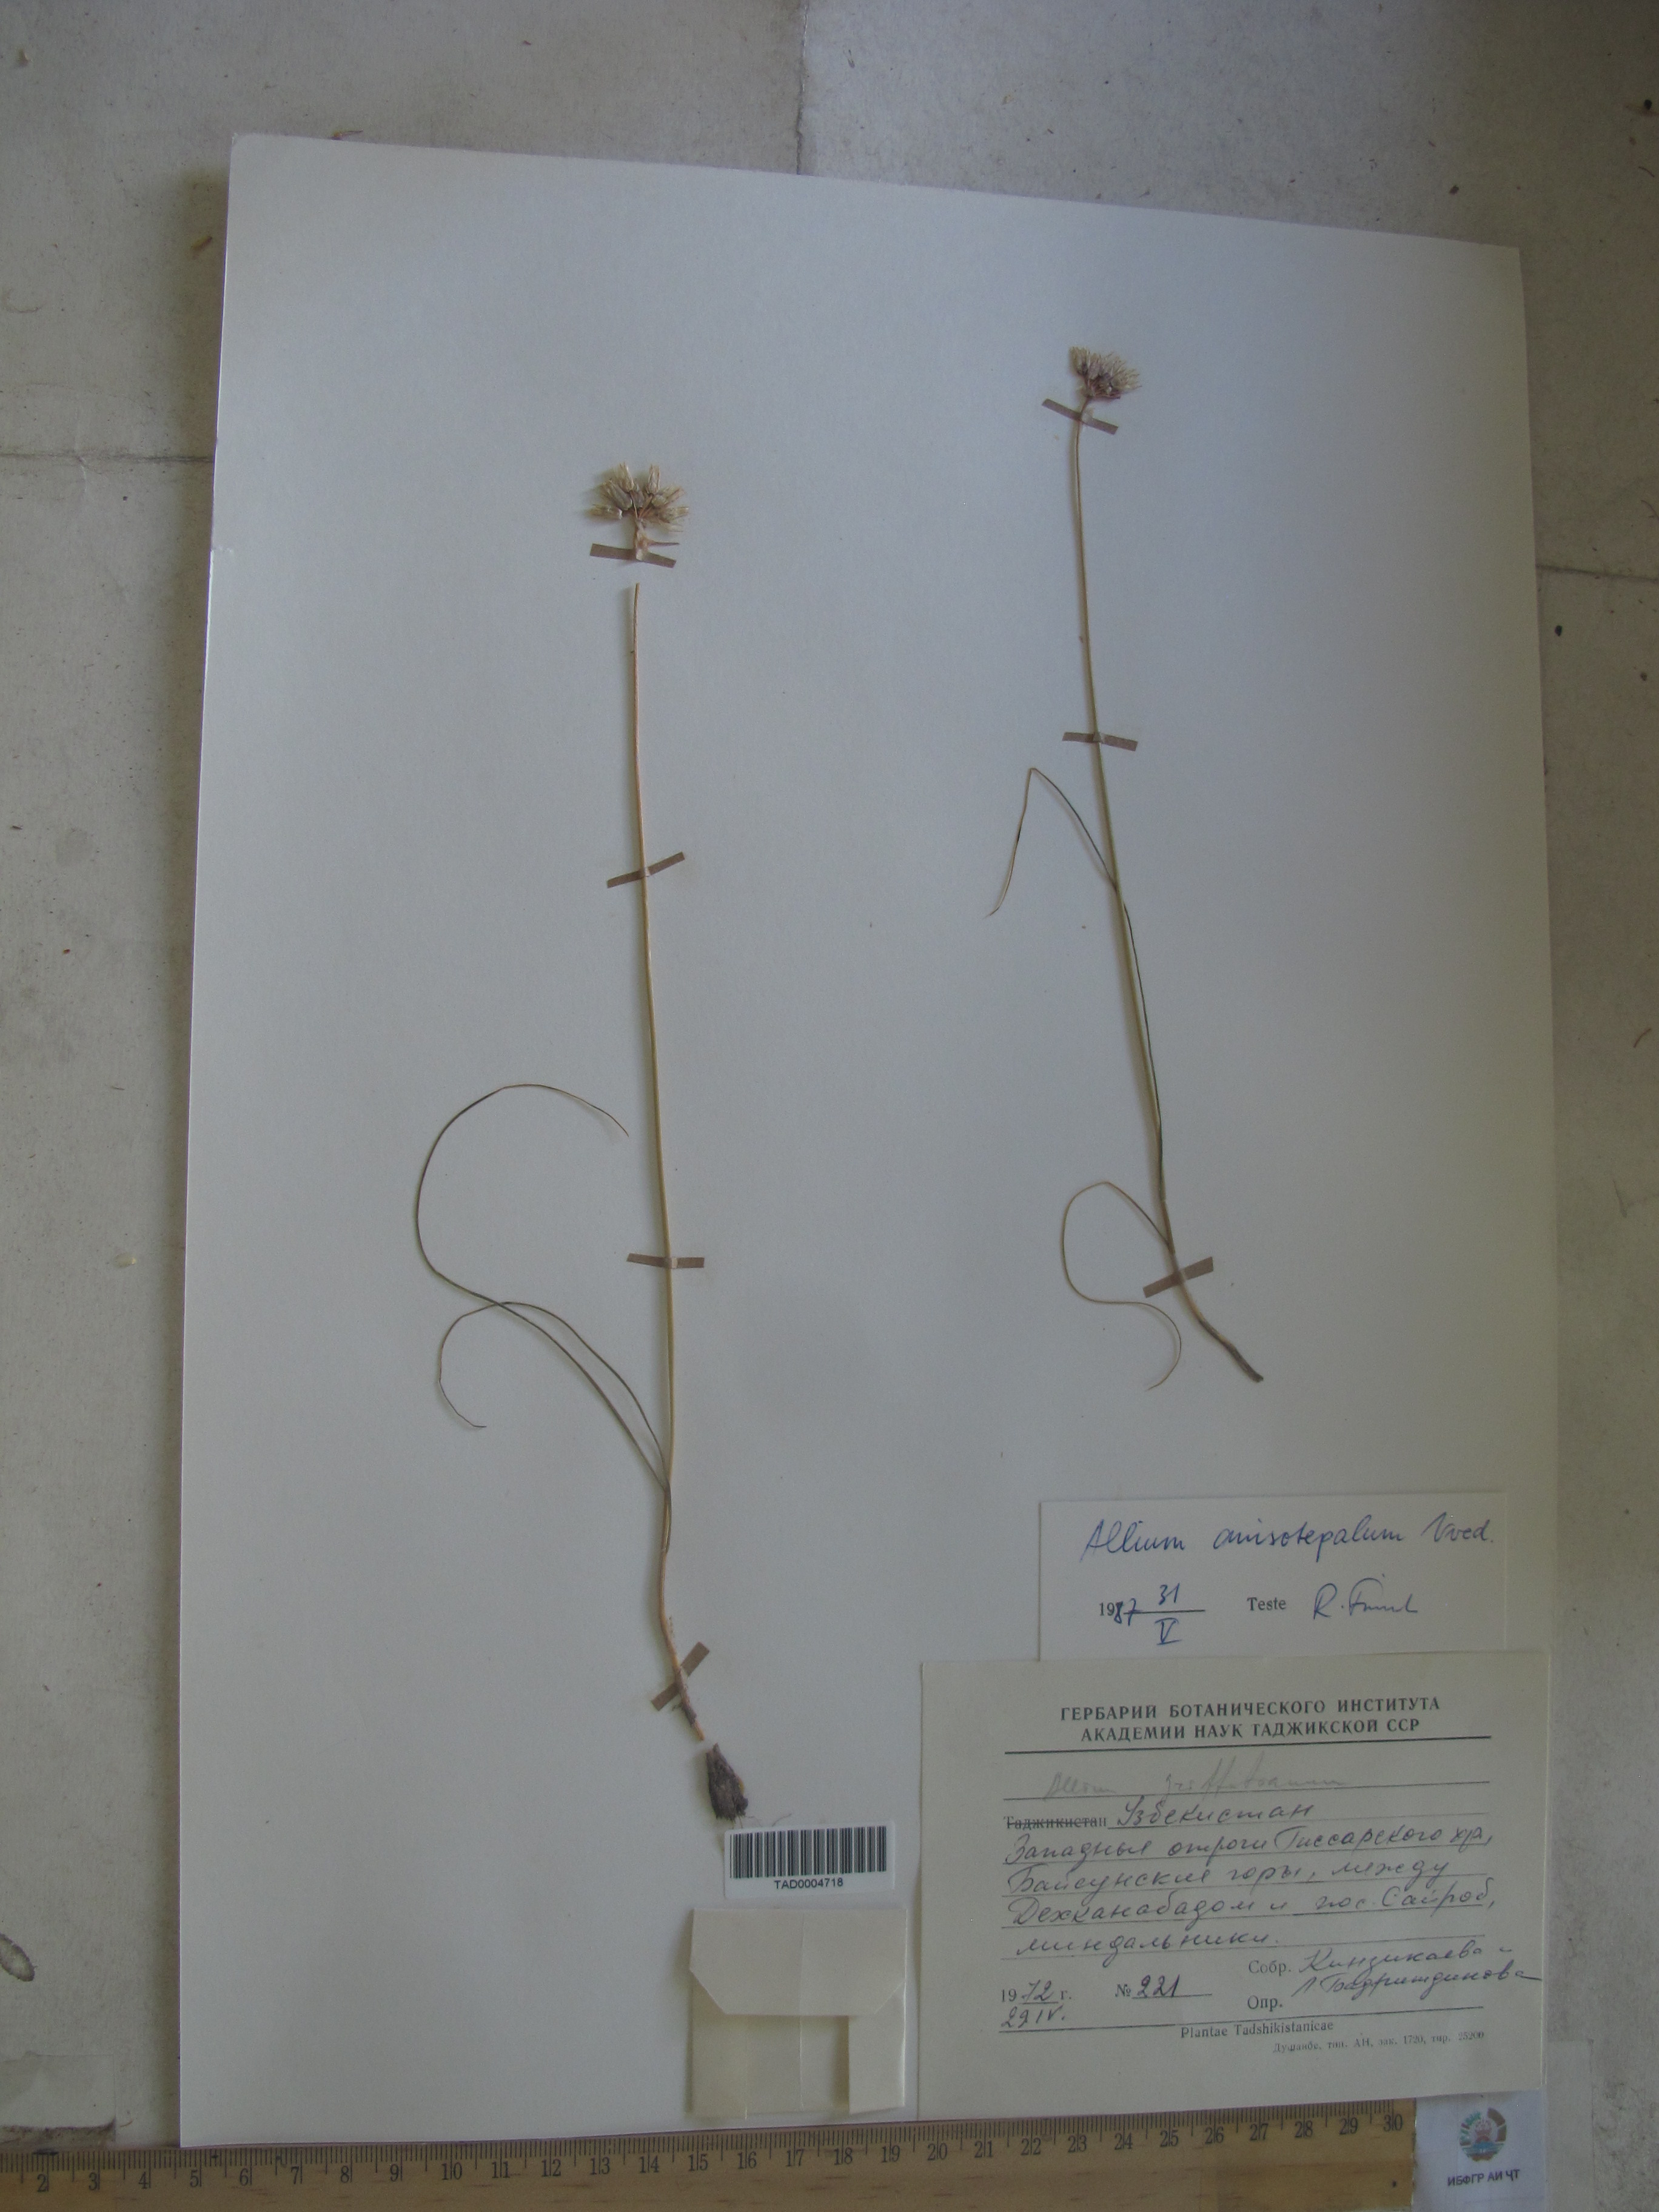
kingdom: Plantae
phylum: Tracheophyta
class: Liliopsida
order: Asparagales
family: Amaryllidaceae
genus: Allium
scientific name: Allium anisotepalum
